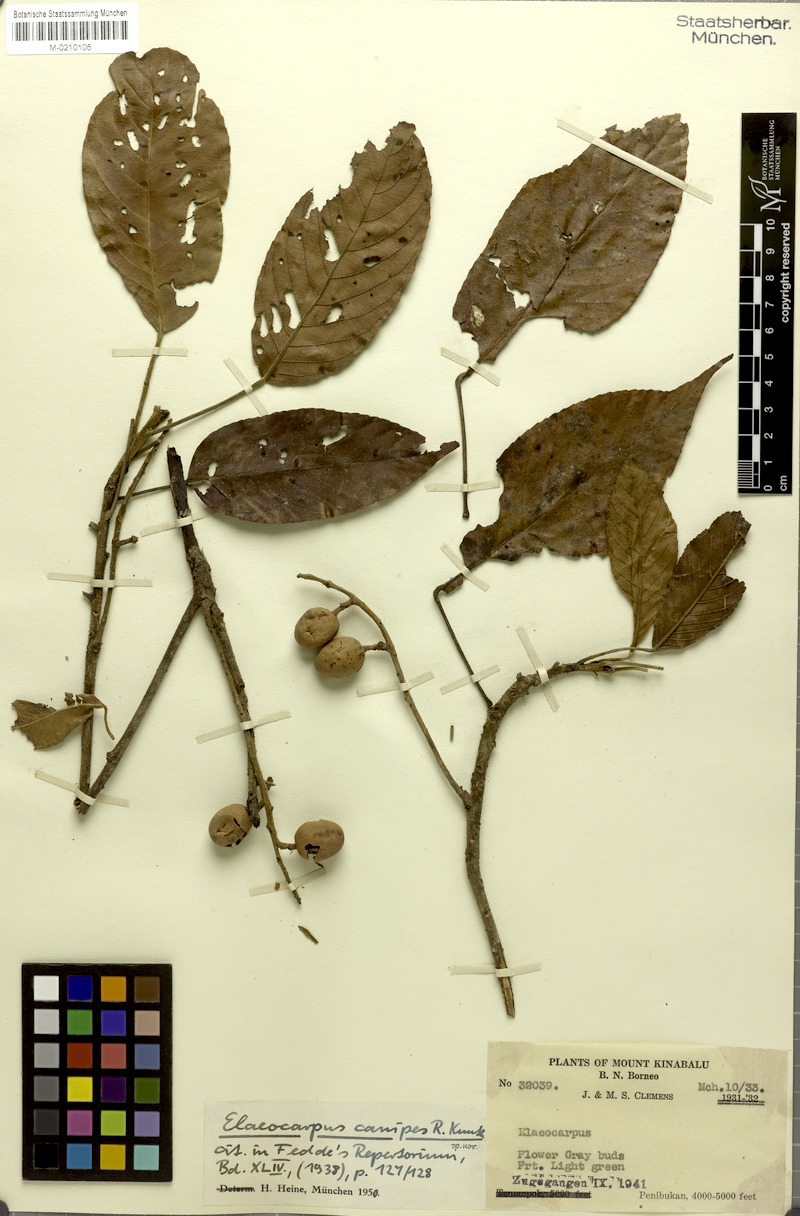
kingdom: Plantae
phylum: Tracheophyta
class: Magnoliopsida
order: Oxalidales
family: Elaeocarpaceae
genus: Elaeocarpus
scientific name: Elaeocarpus clementis
